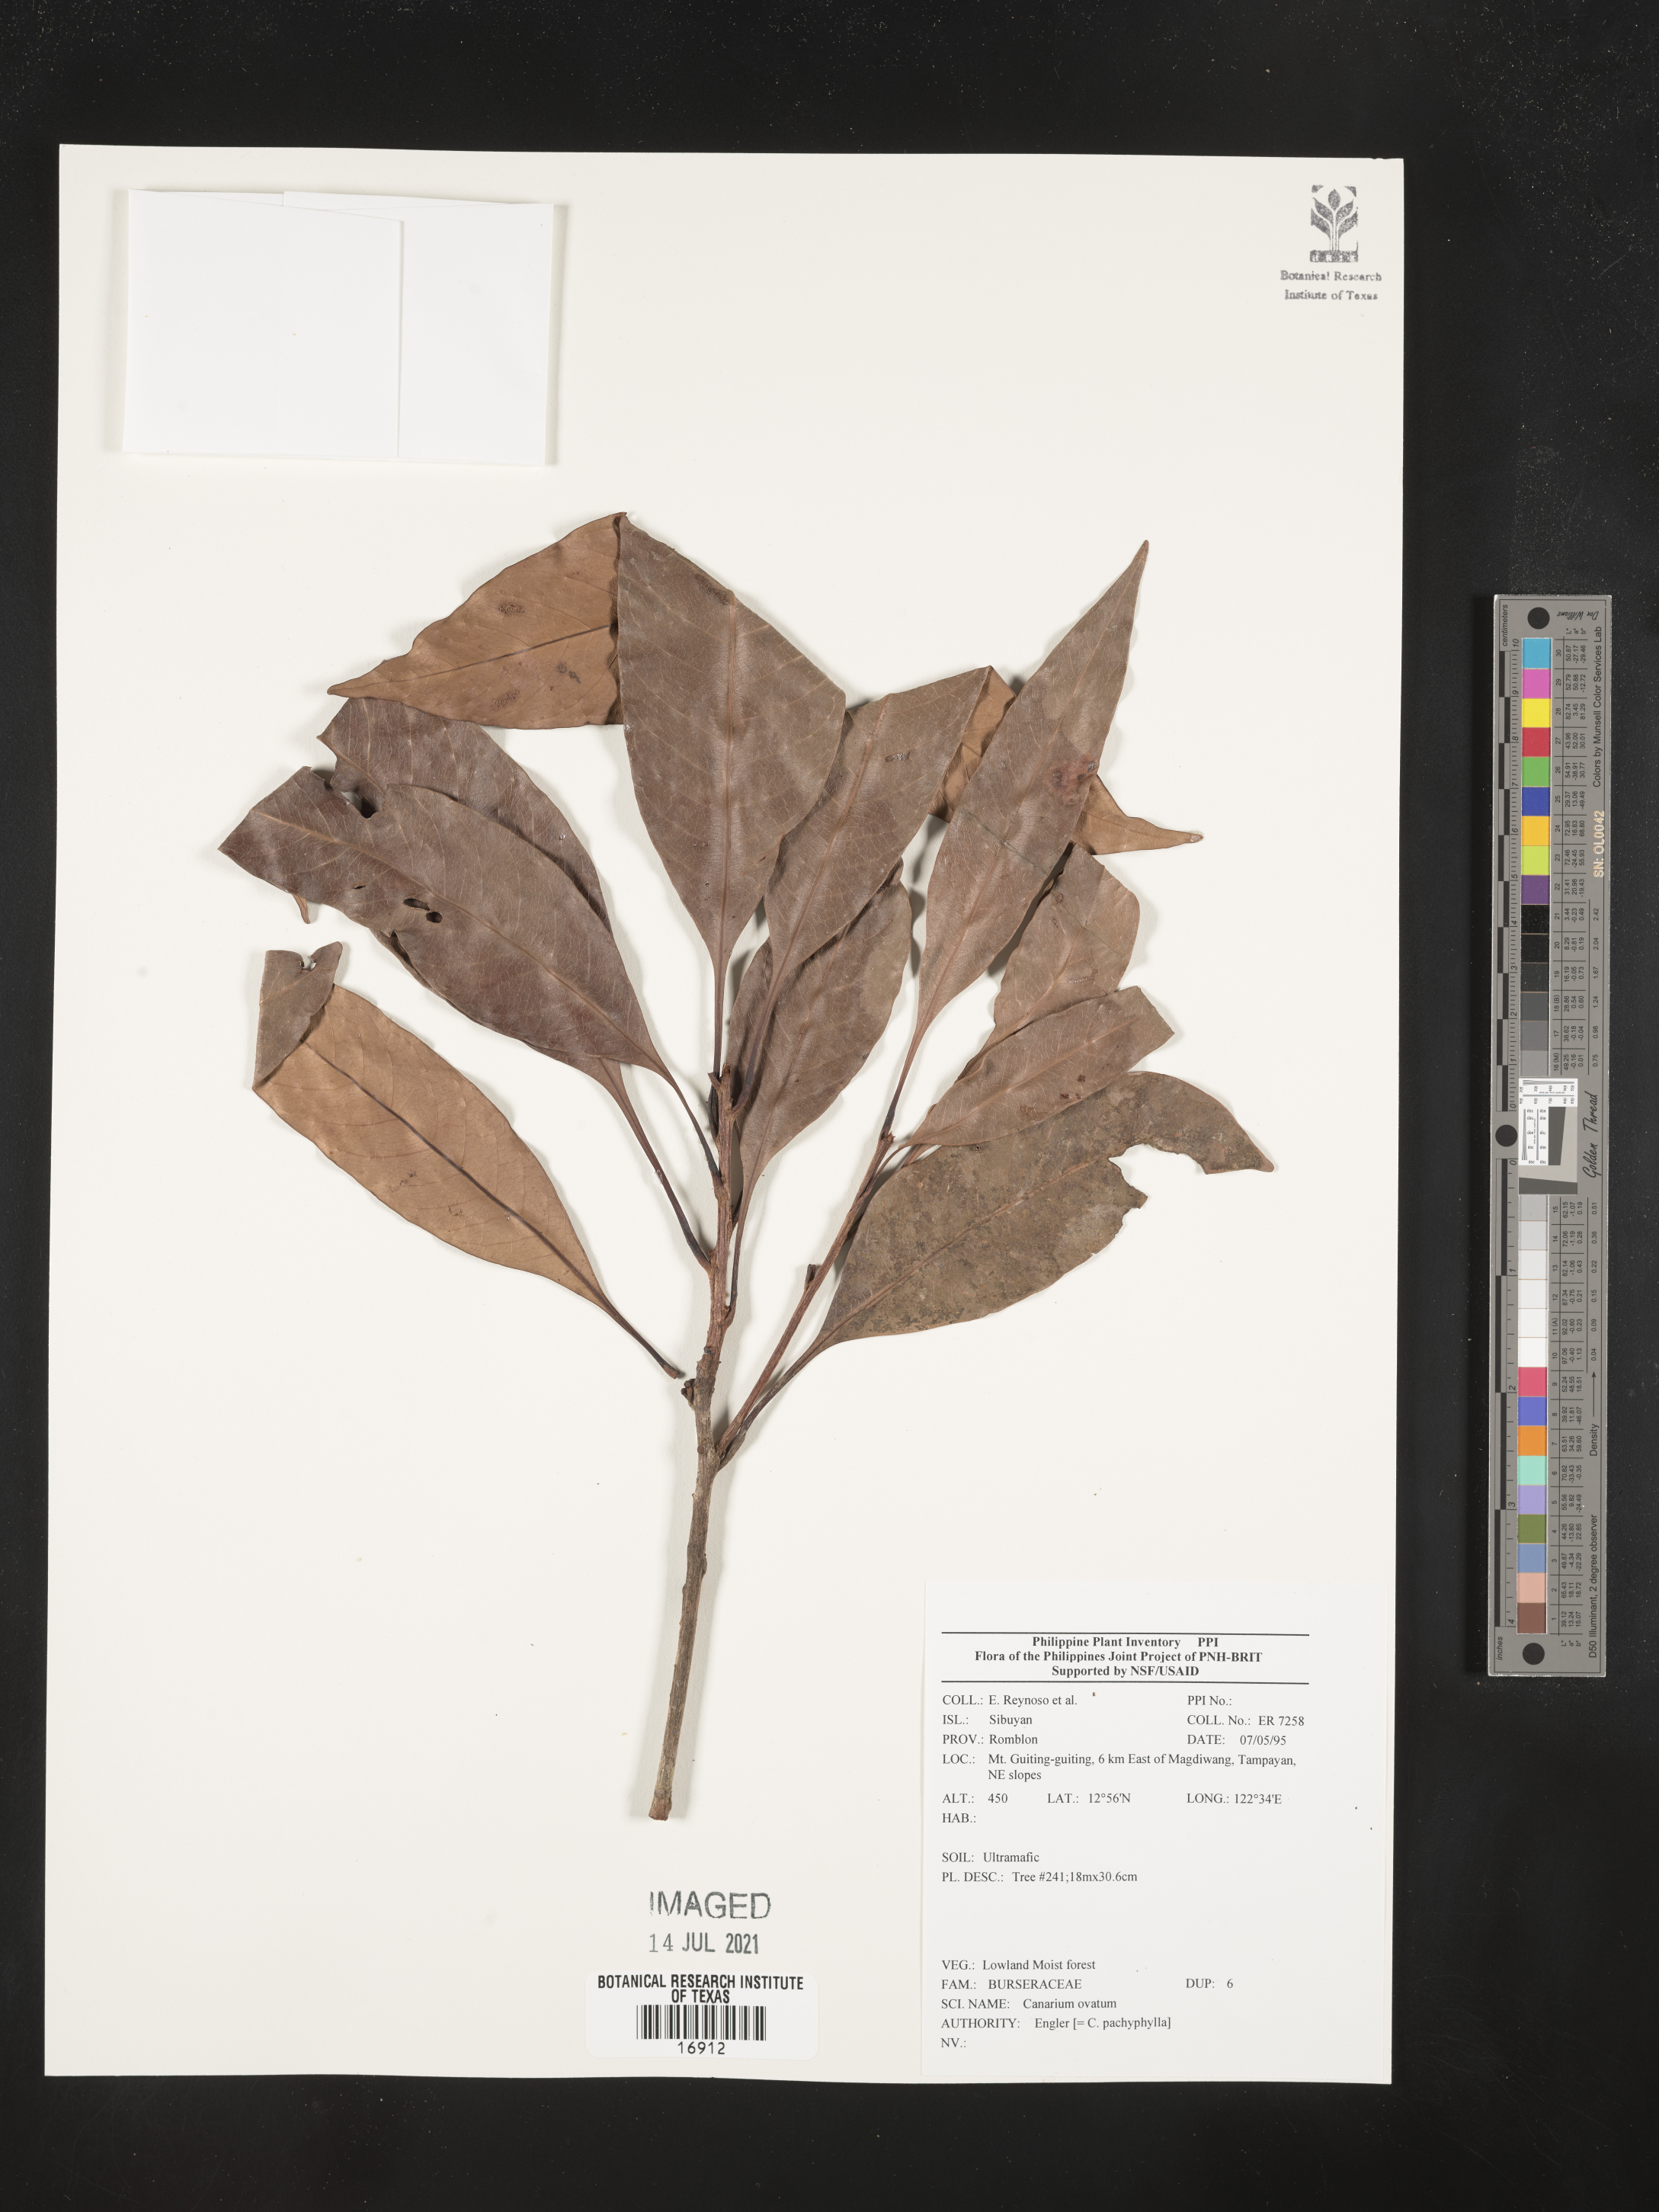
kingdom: Plantae
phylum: Tracheophyta
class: Magnoliopsida
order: Sapindales
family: Burseraceae
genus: Canarium
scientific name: Canarium ovatum
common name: Pilinut
